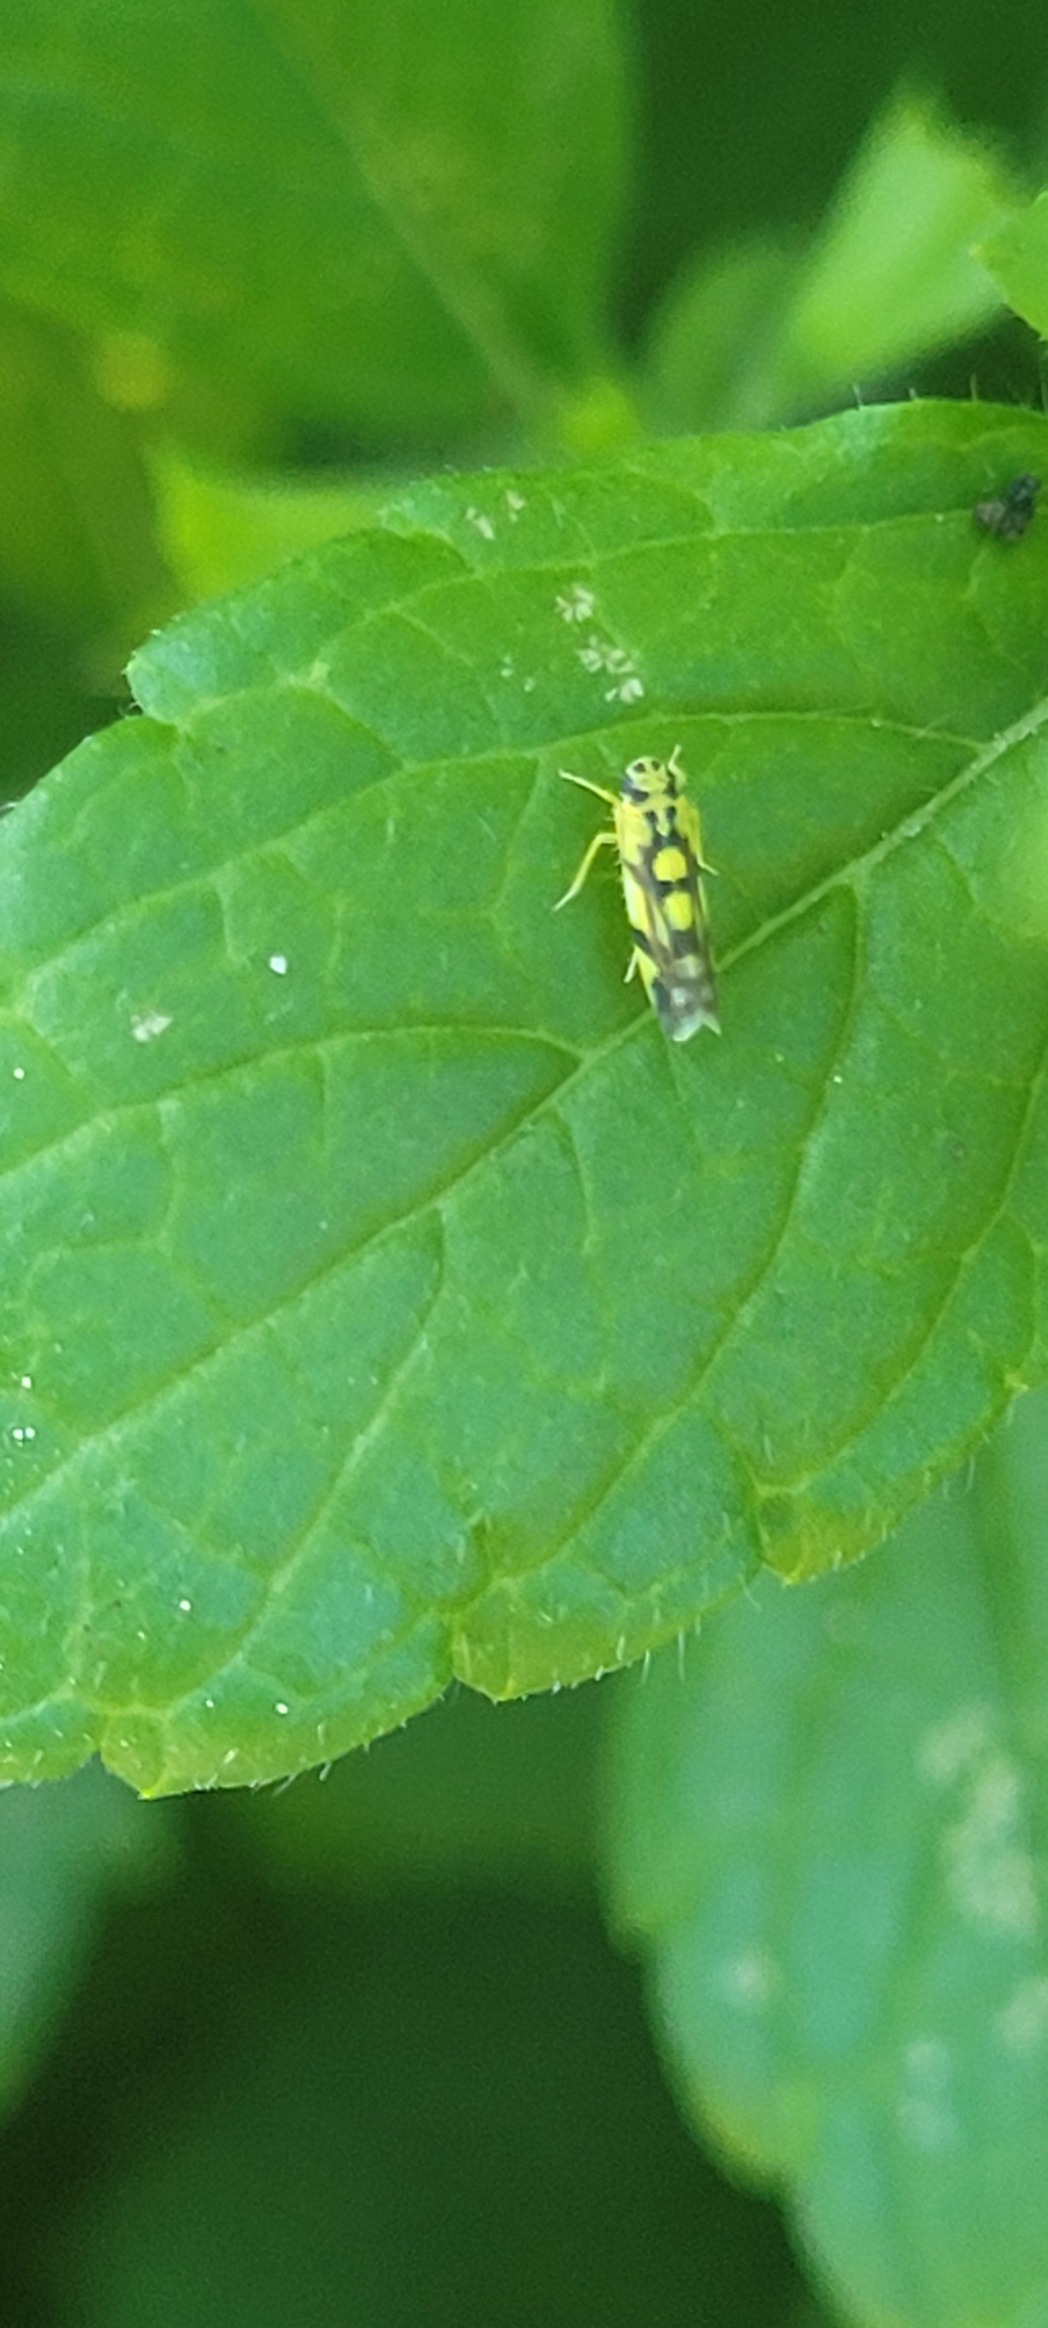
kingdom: Animalia
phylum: Arthropoda
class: Insecta
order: Hemiptera
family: Cicadellidae
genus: Eupteryx
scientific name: Eupteryx aurata
